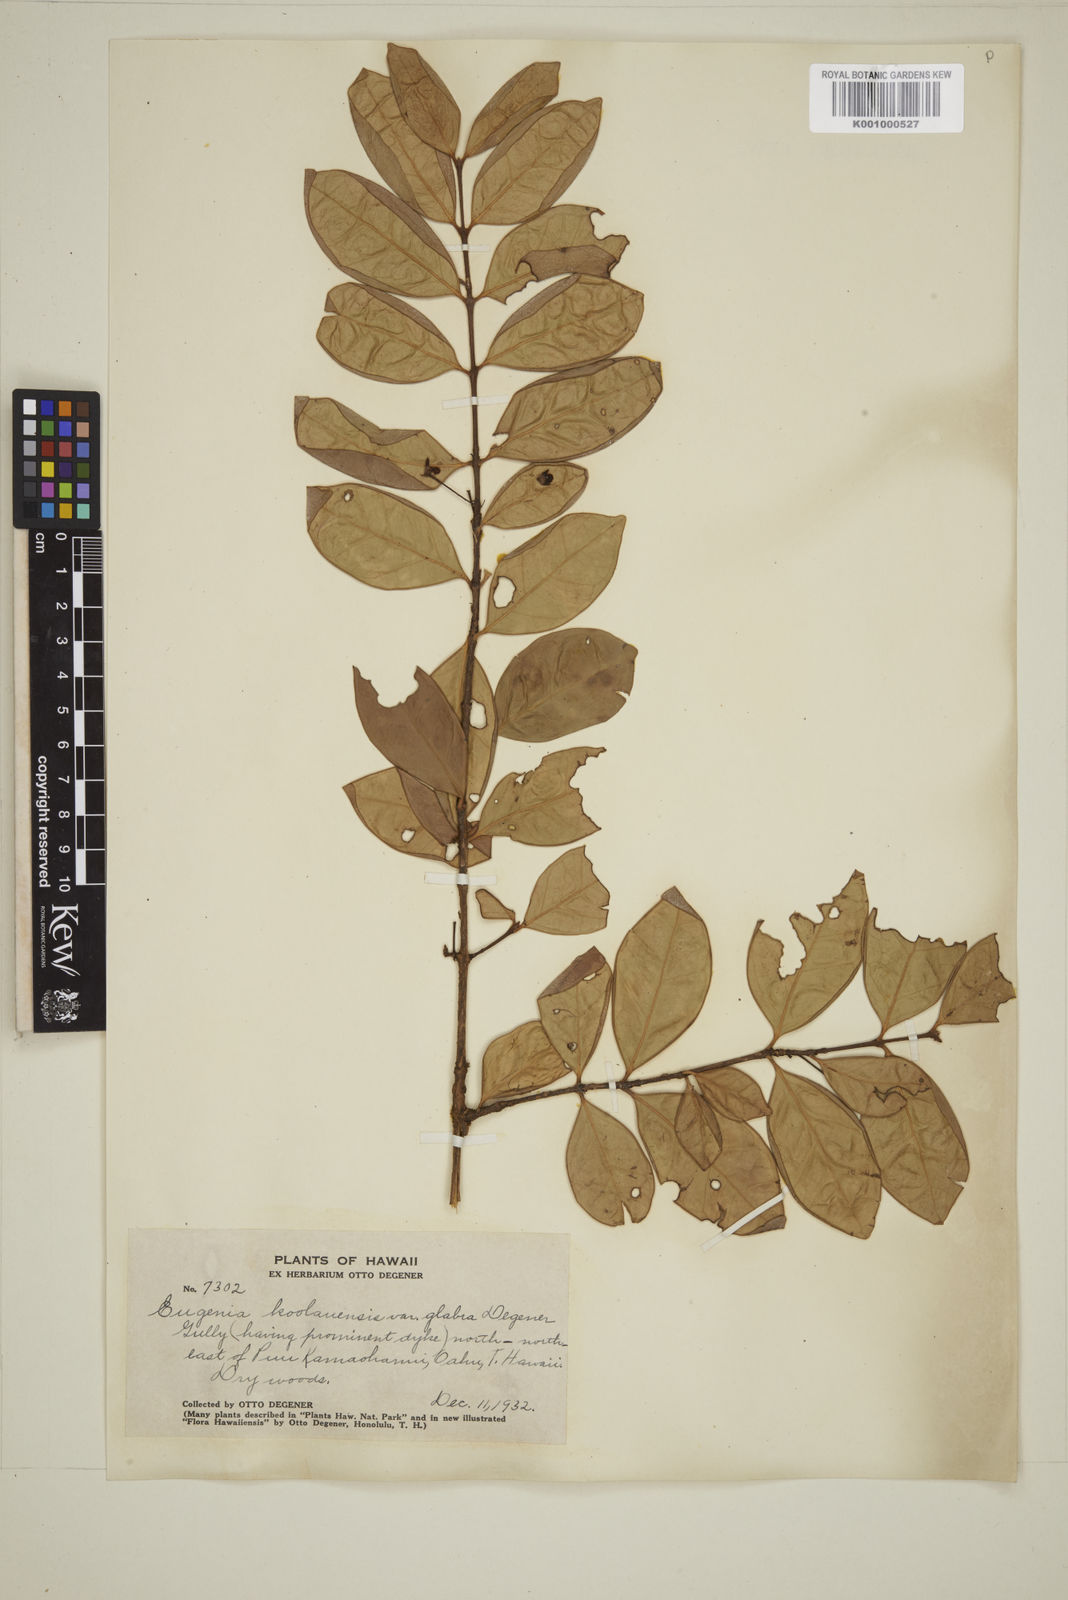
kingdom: Plantae
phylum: Tracheophyta
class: Magnoliopsida
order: Myrtales
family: Myrtaceae
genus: Eugenia
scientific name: Eugenia koolauensis
